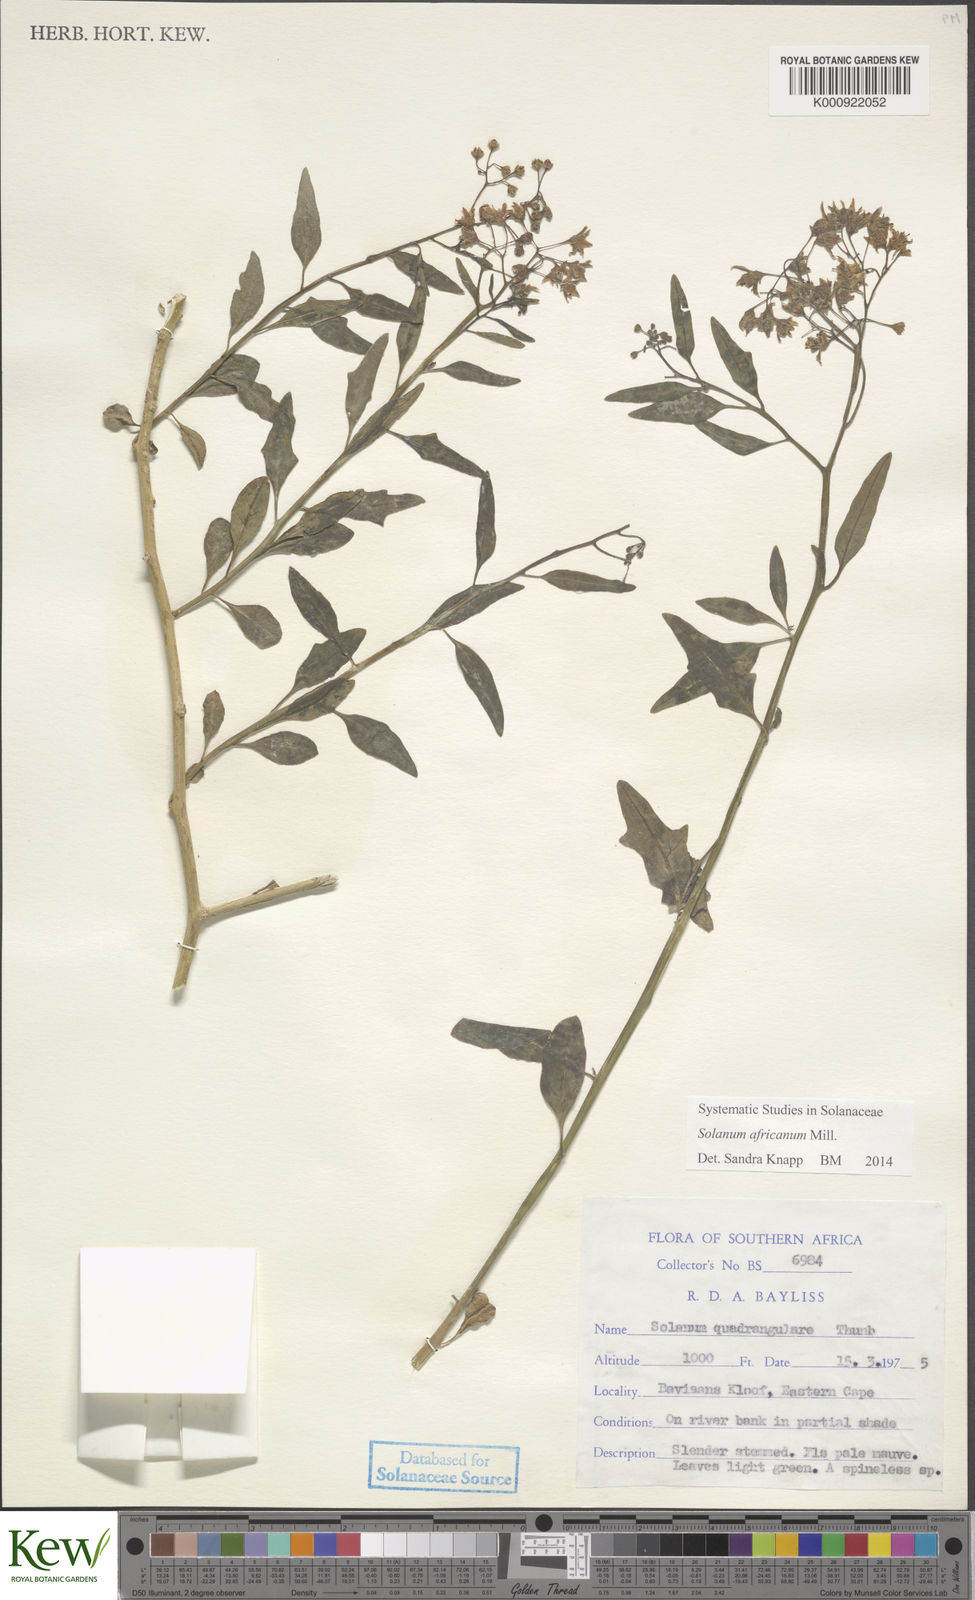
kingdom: Plantae
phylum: Tracheophyta
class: Magnoliopsida
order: Solanales
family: Solanaceae
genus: Solanum
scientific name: Solanum africanum
